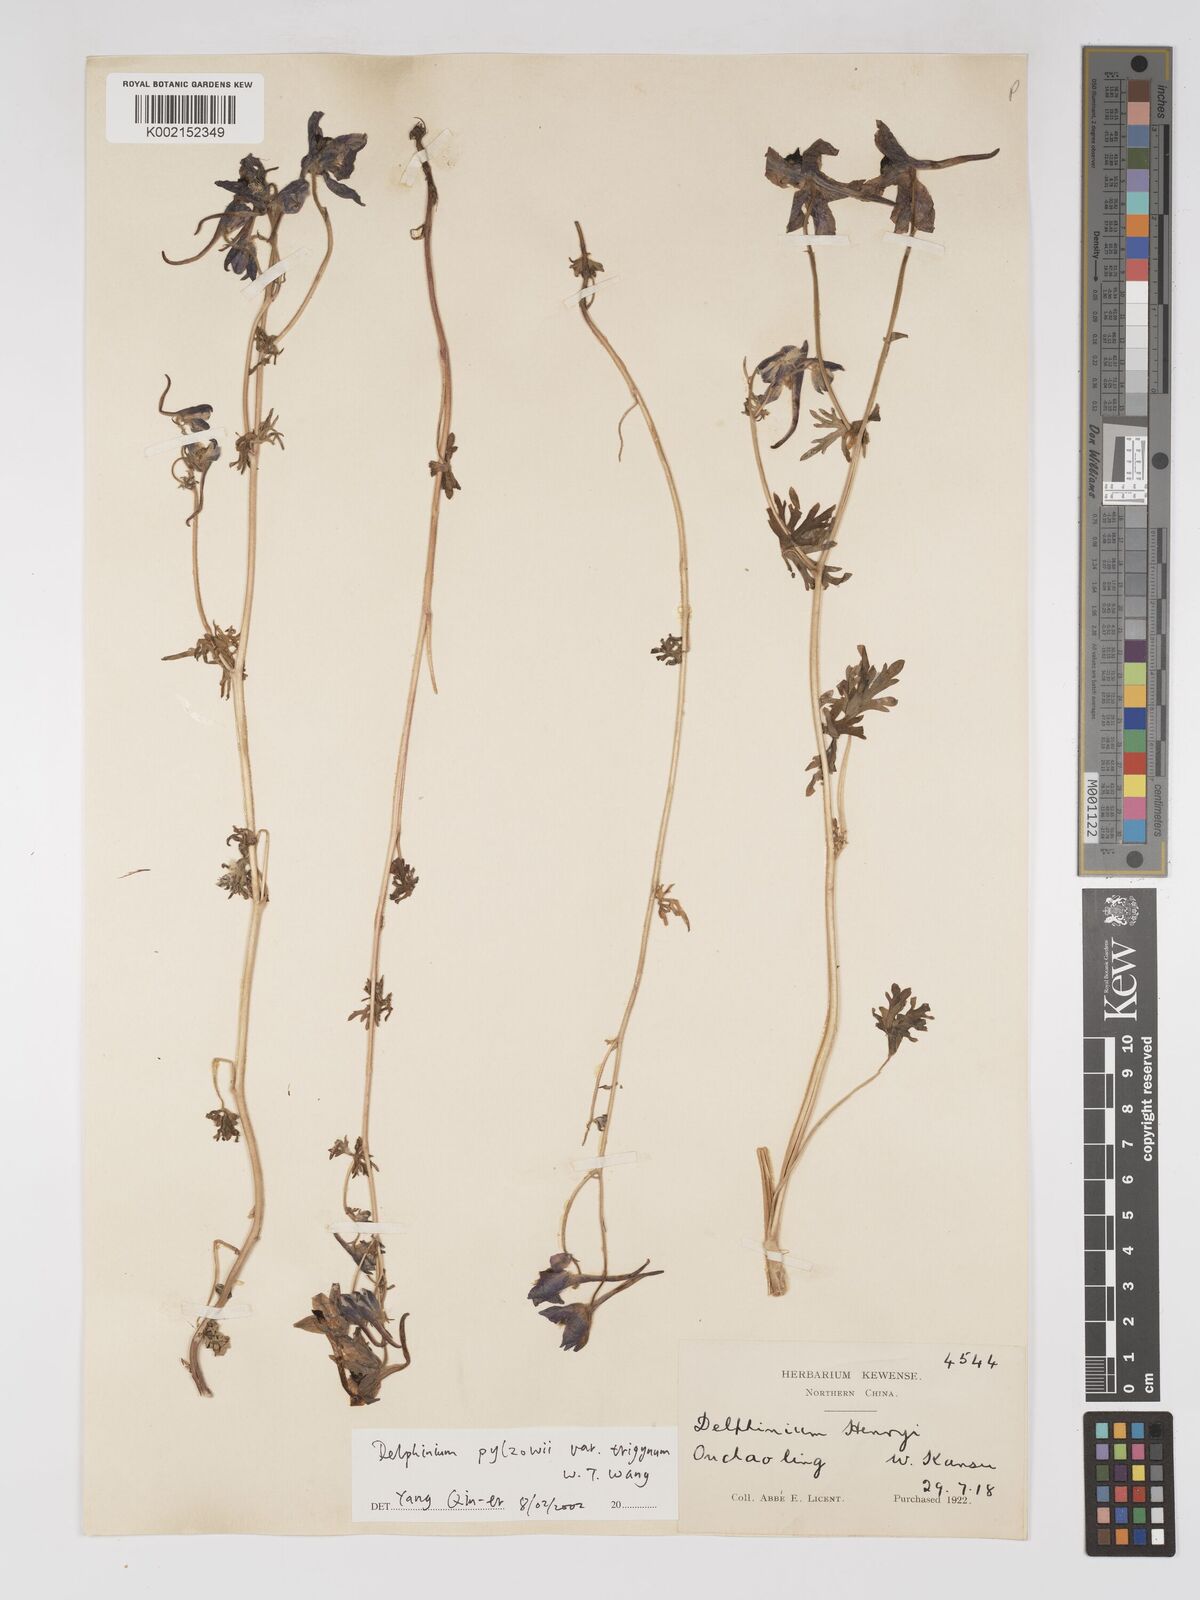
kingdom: Plantae
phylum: Tracheophyta
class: Magnoliopsida
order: Ranunculales
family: Ranunculaceae
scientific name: Ranunculaceae
